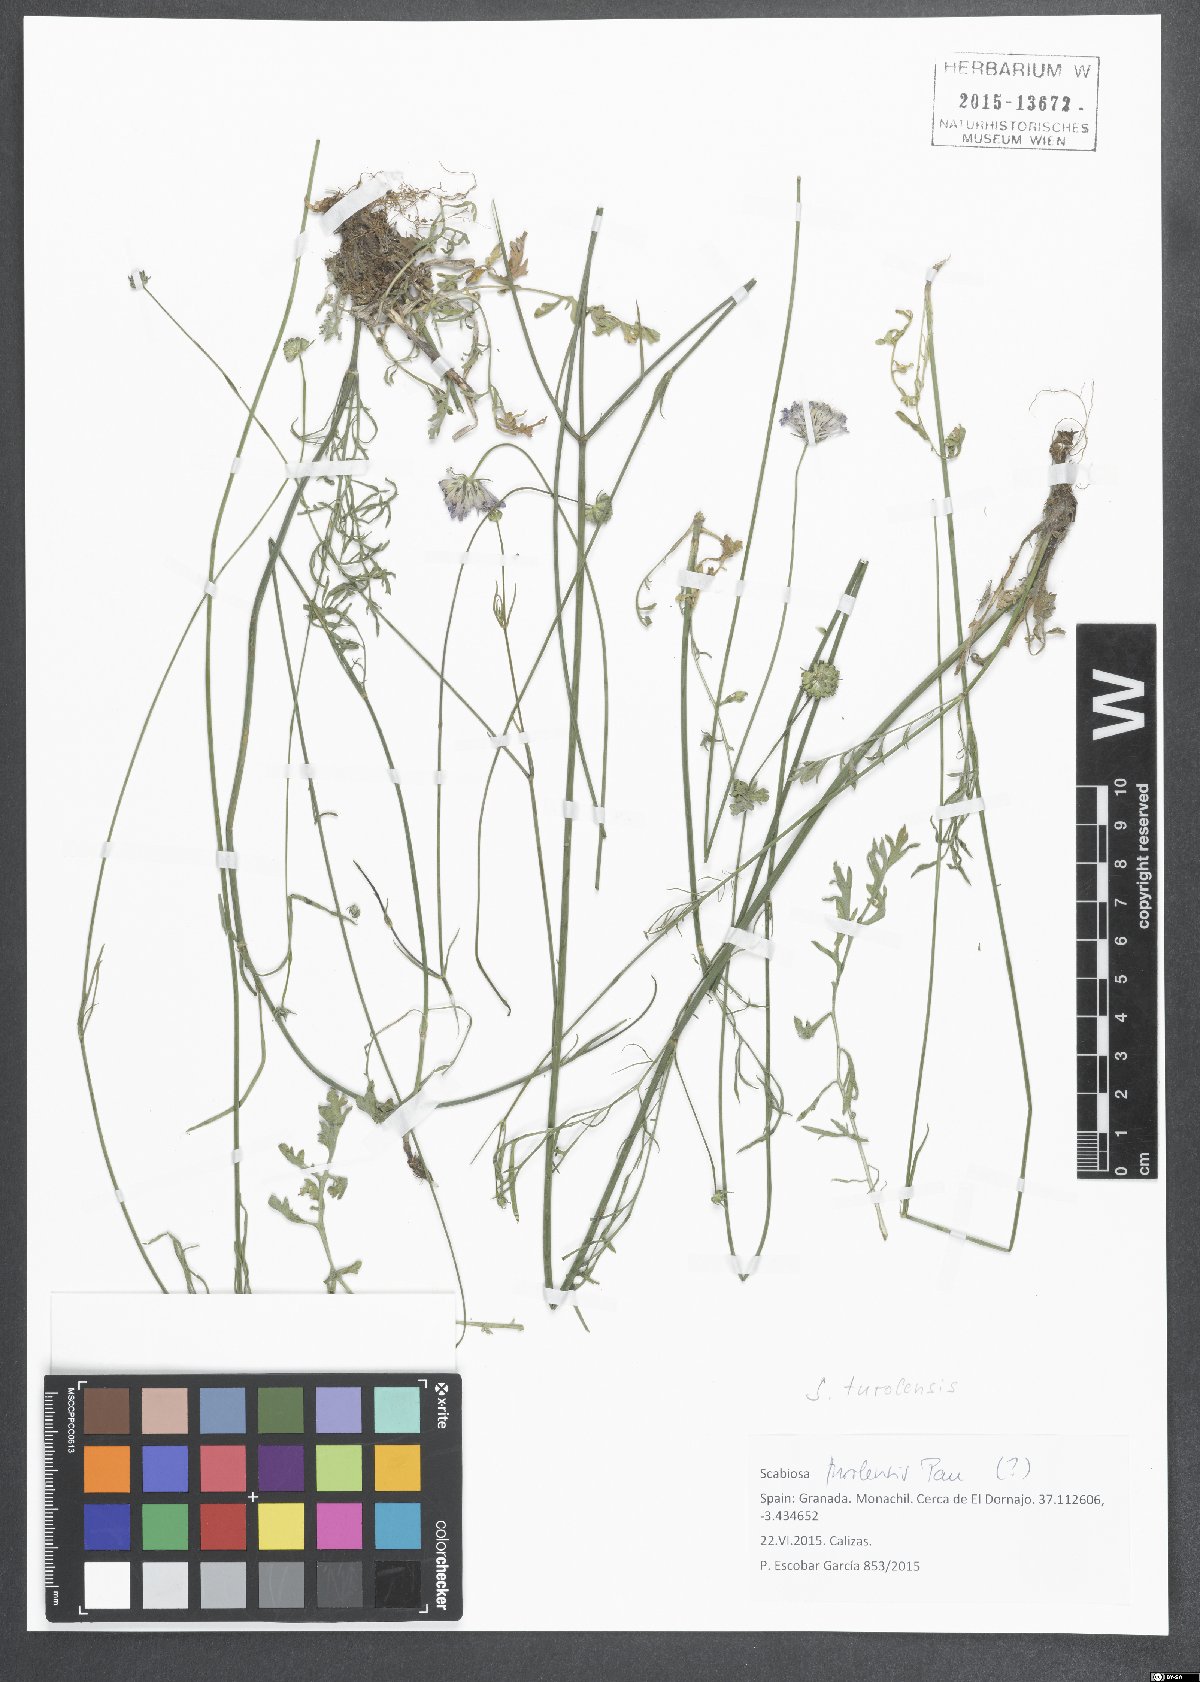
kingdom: Plantae
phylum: Tracheophyta
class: Magnoliopsida
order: Dipsacales
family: Caprifoliaceae
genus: Scabiosa
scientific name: Scabiosa turolensis
